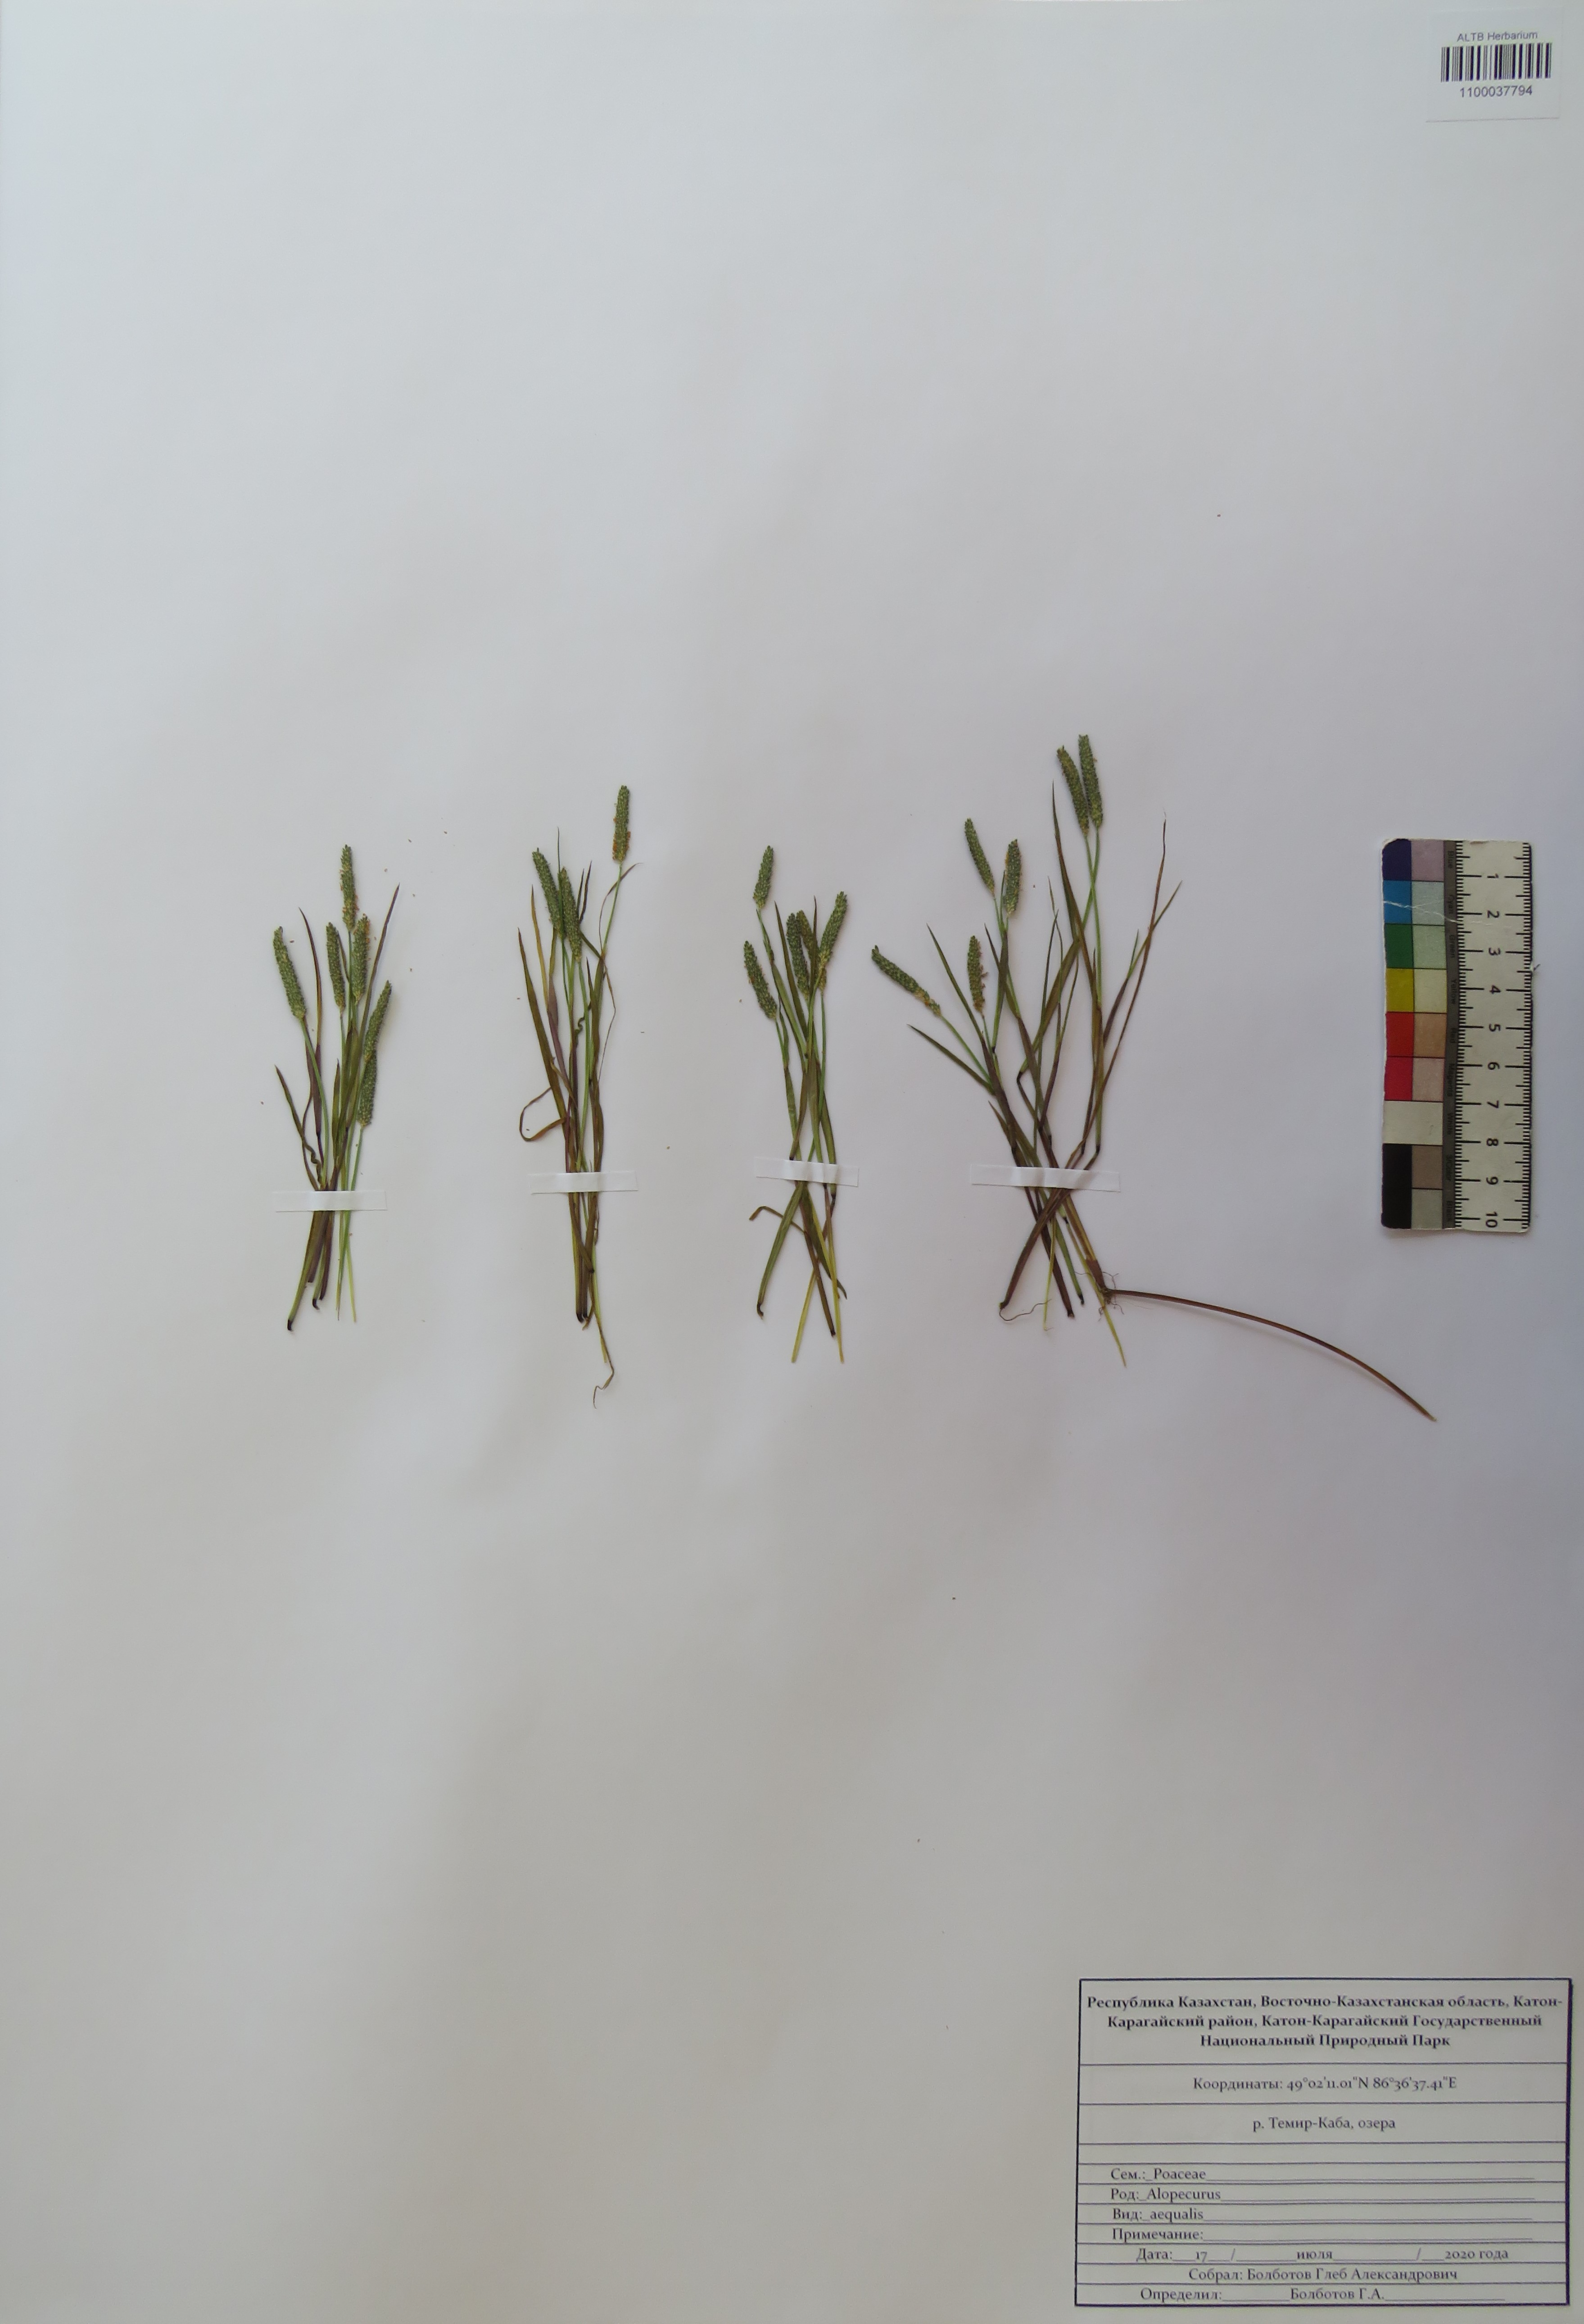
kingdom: Plantae
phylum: Tracheophyta
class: Liliopsida
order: Poales
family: Poaceae
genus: Alopecurus
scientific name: Alopecurus aequalis
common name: Orange foxtail
